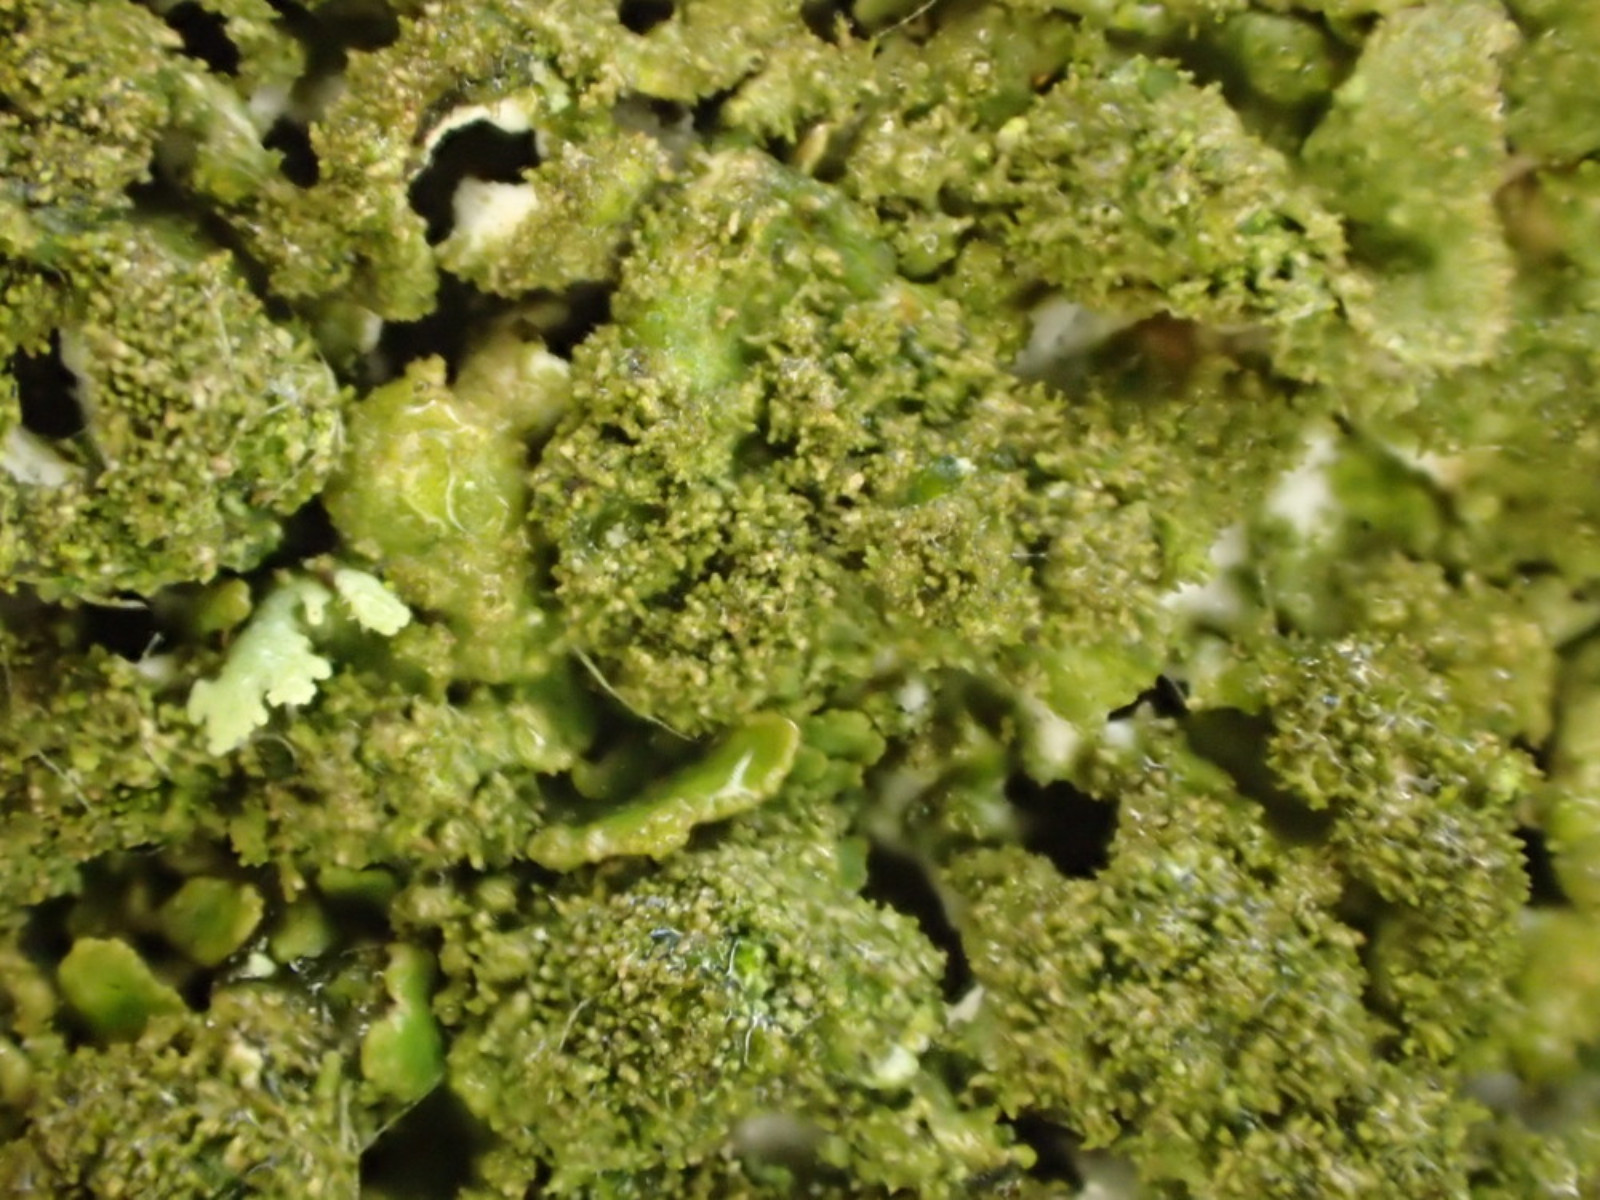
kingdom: Fungi
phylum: Ascomycota
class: Lecanoromycetes
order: Lecanorales
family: Parmeliaceae
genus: Melanohalea
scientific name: Melanohalea exasperatula
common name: kølle-skållav
